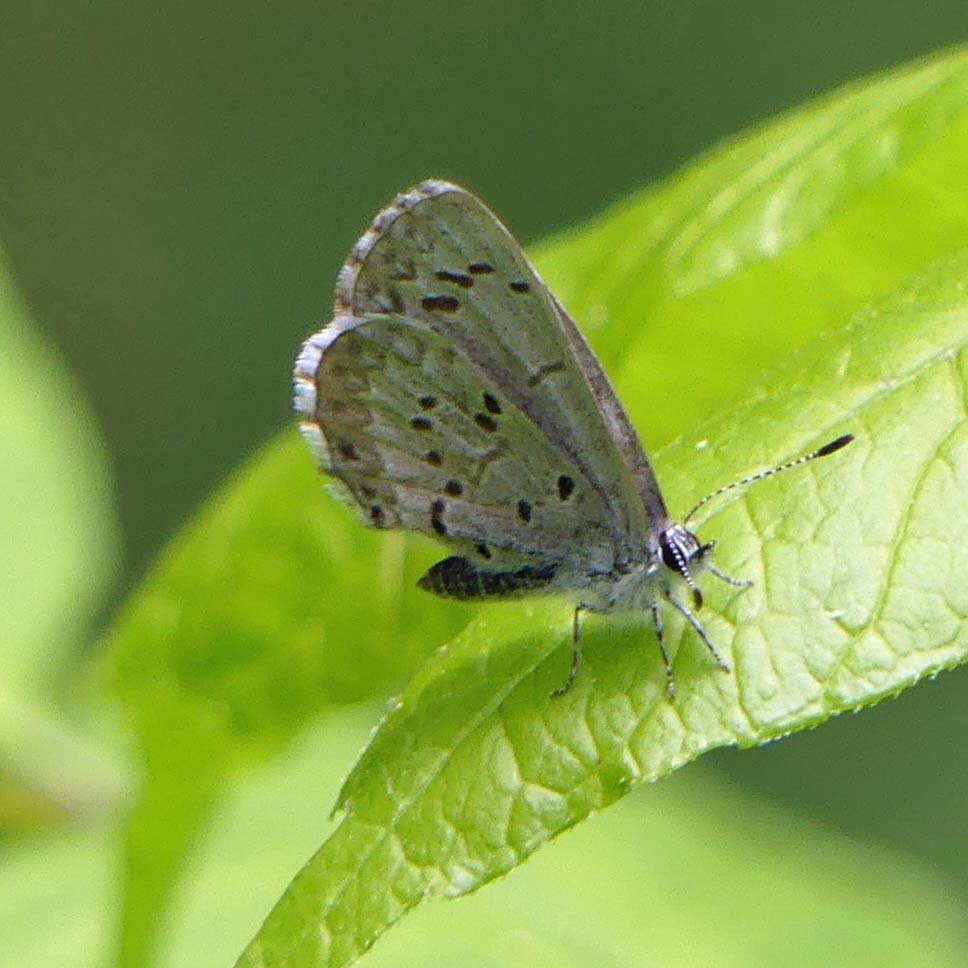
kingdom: Animalia
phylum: Arthropoda
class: Insecta
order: Lepidoptera
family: Lycaenidae
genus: Celastrina
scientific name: Celastrina lucia
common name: Northern Spring Azure
